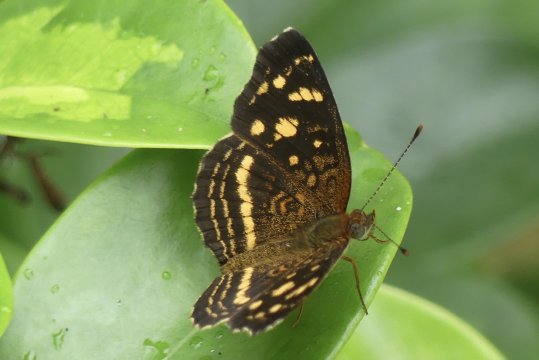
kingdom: Animalia
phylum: Arthropoda
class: Insecta
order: Lepidoptera
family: Nymphalidae
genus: Anthanassa
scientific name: Anthanassa drusilla
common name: Orange-patched Crescent
